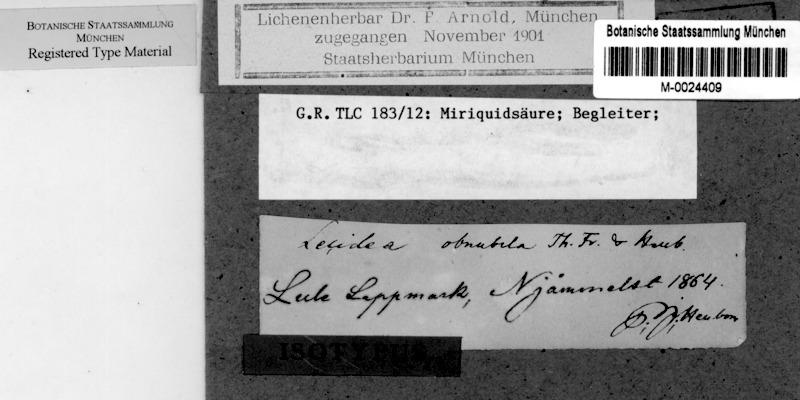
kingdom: Fungi
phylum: Ascomycota
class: Lecanoromycetes
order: Lecanorales
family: Lecanoraceae
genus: Miriquidica
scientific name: Miriquidica obnubila
